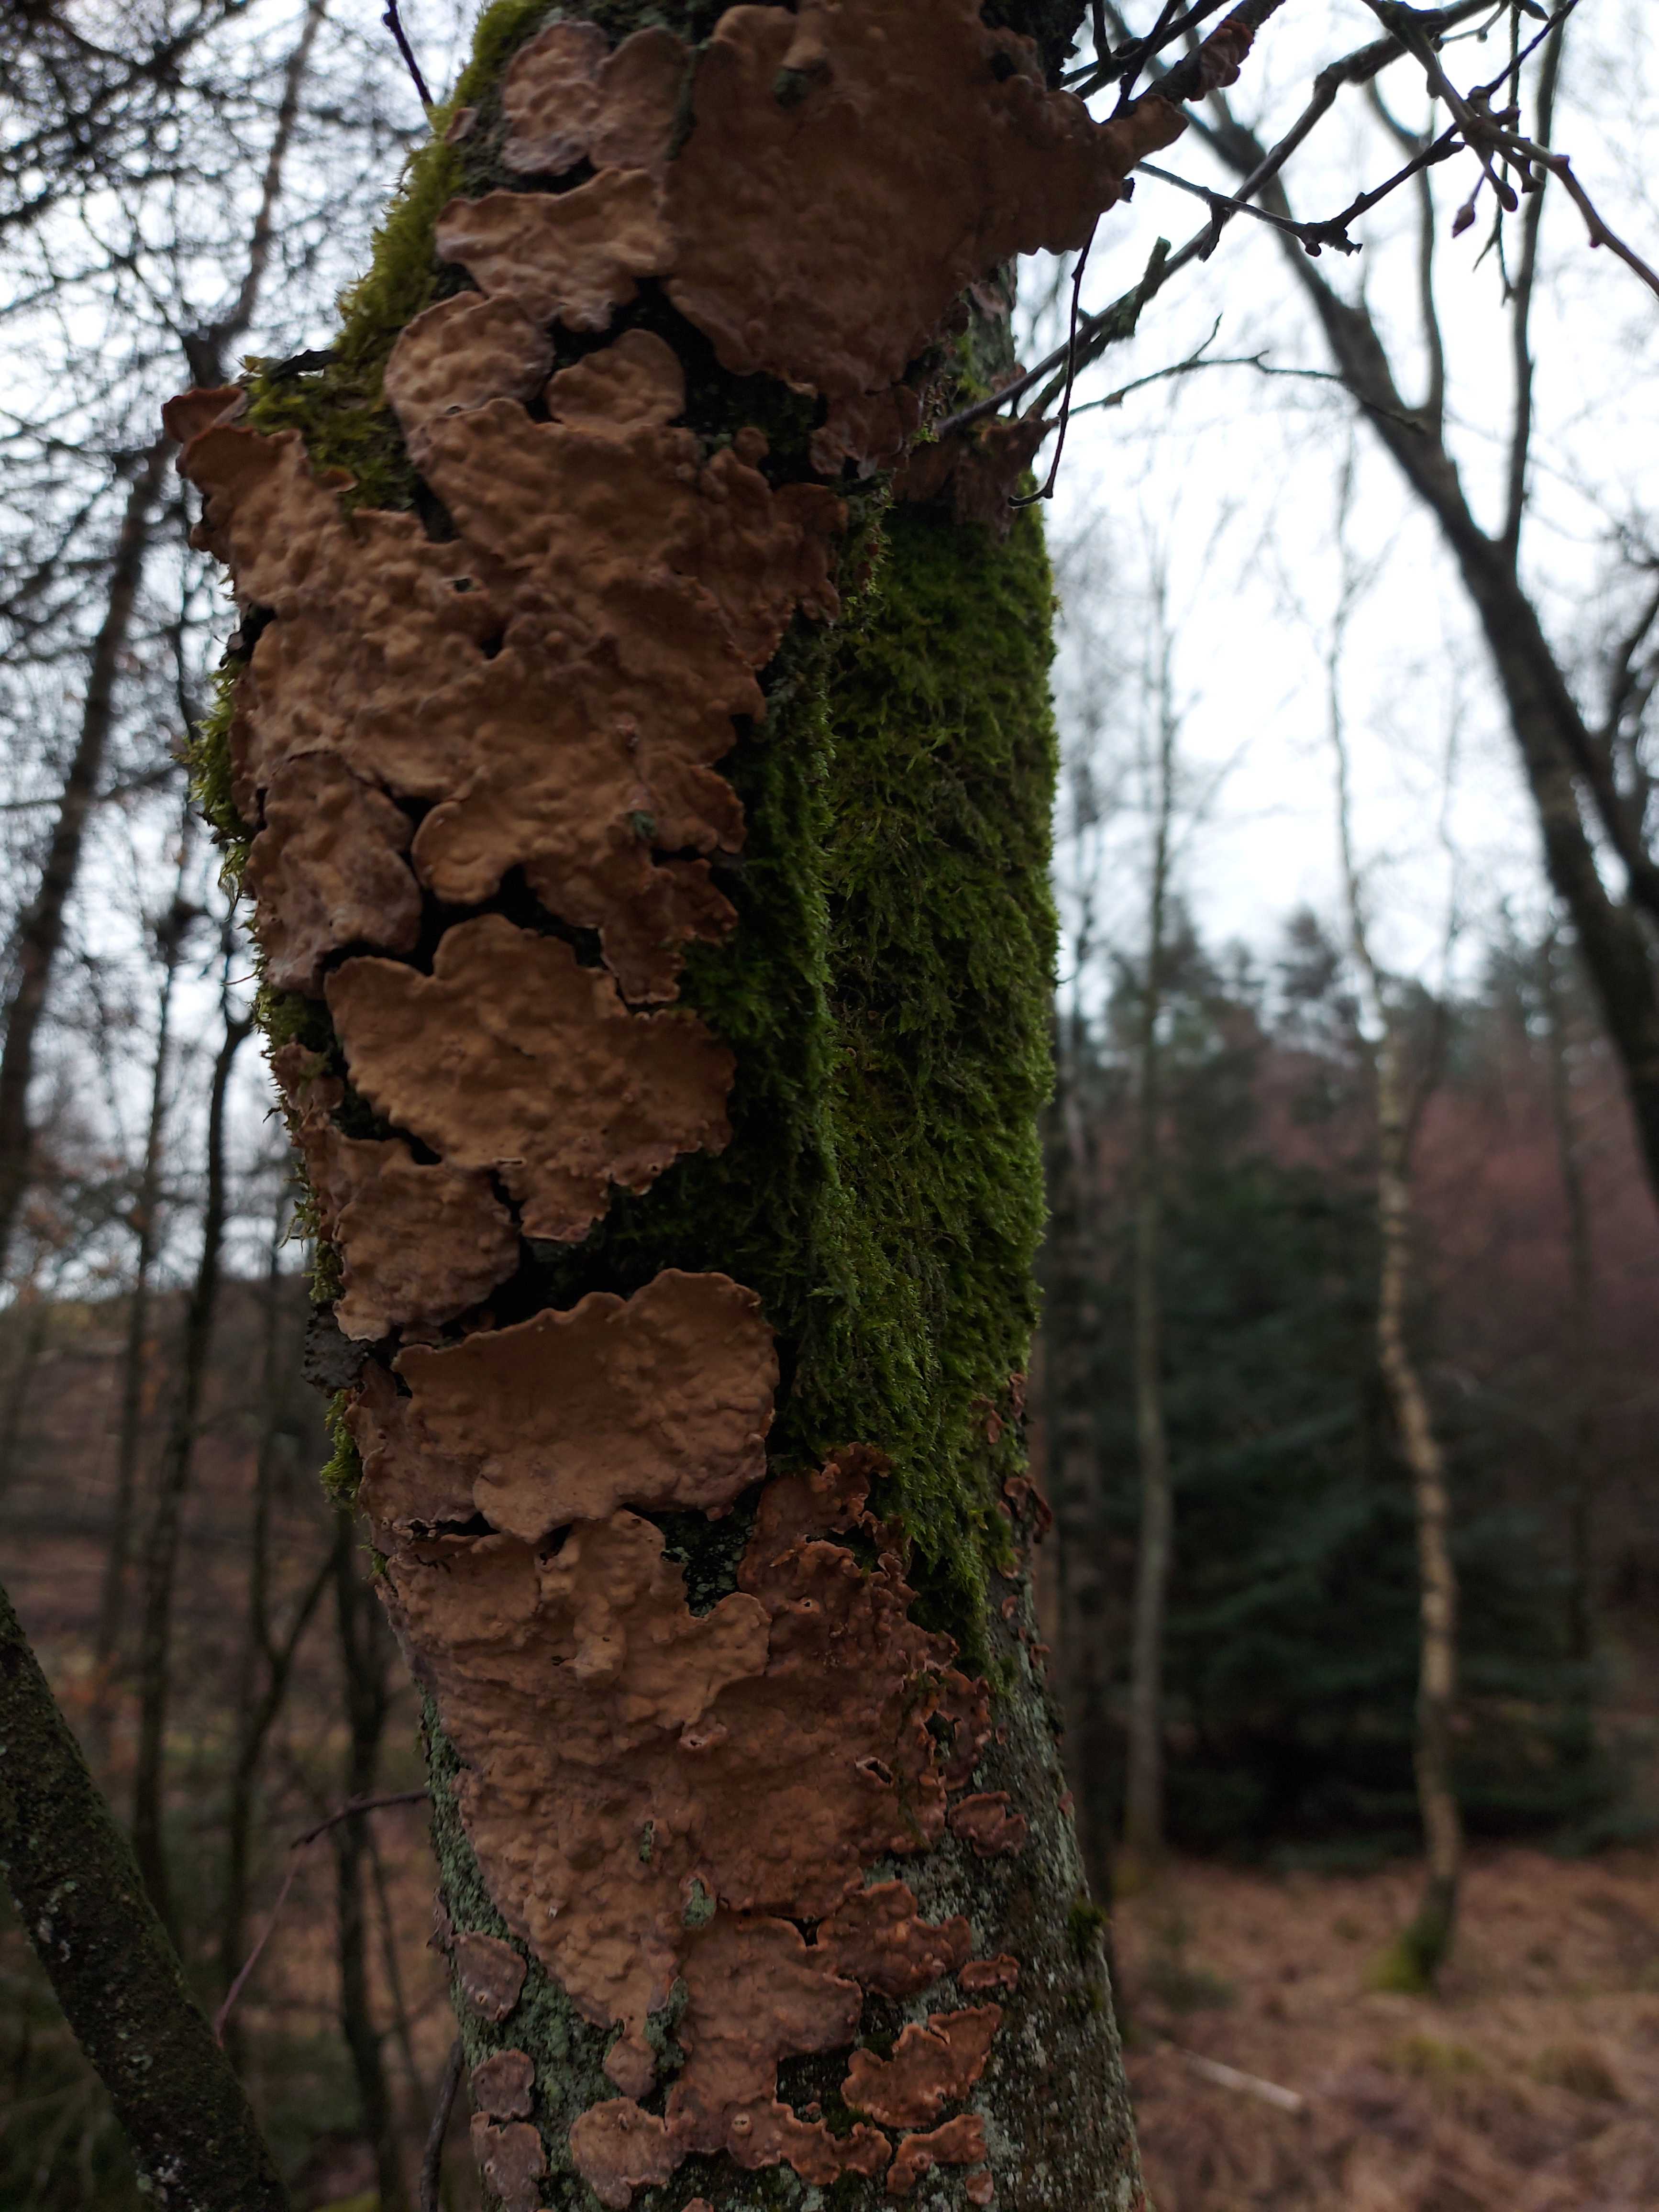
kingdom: Fungi
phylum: Basidiomycota
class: Agaricomycetes
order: Russulales
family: Stereaceae
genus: Stereum
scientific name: Stereum rugosum
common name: rynket lædersvamp
